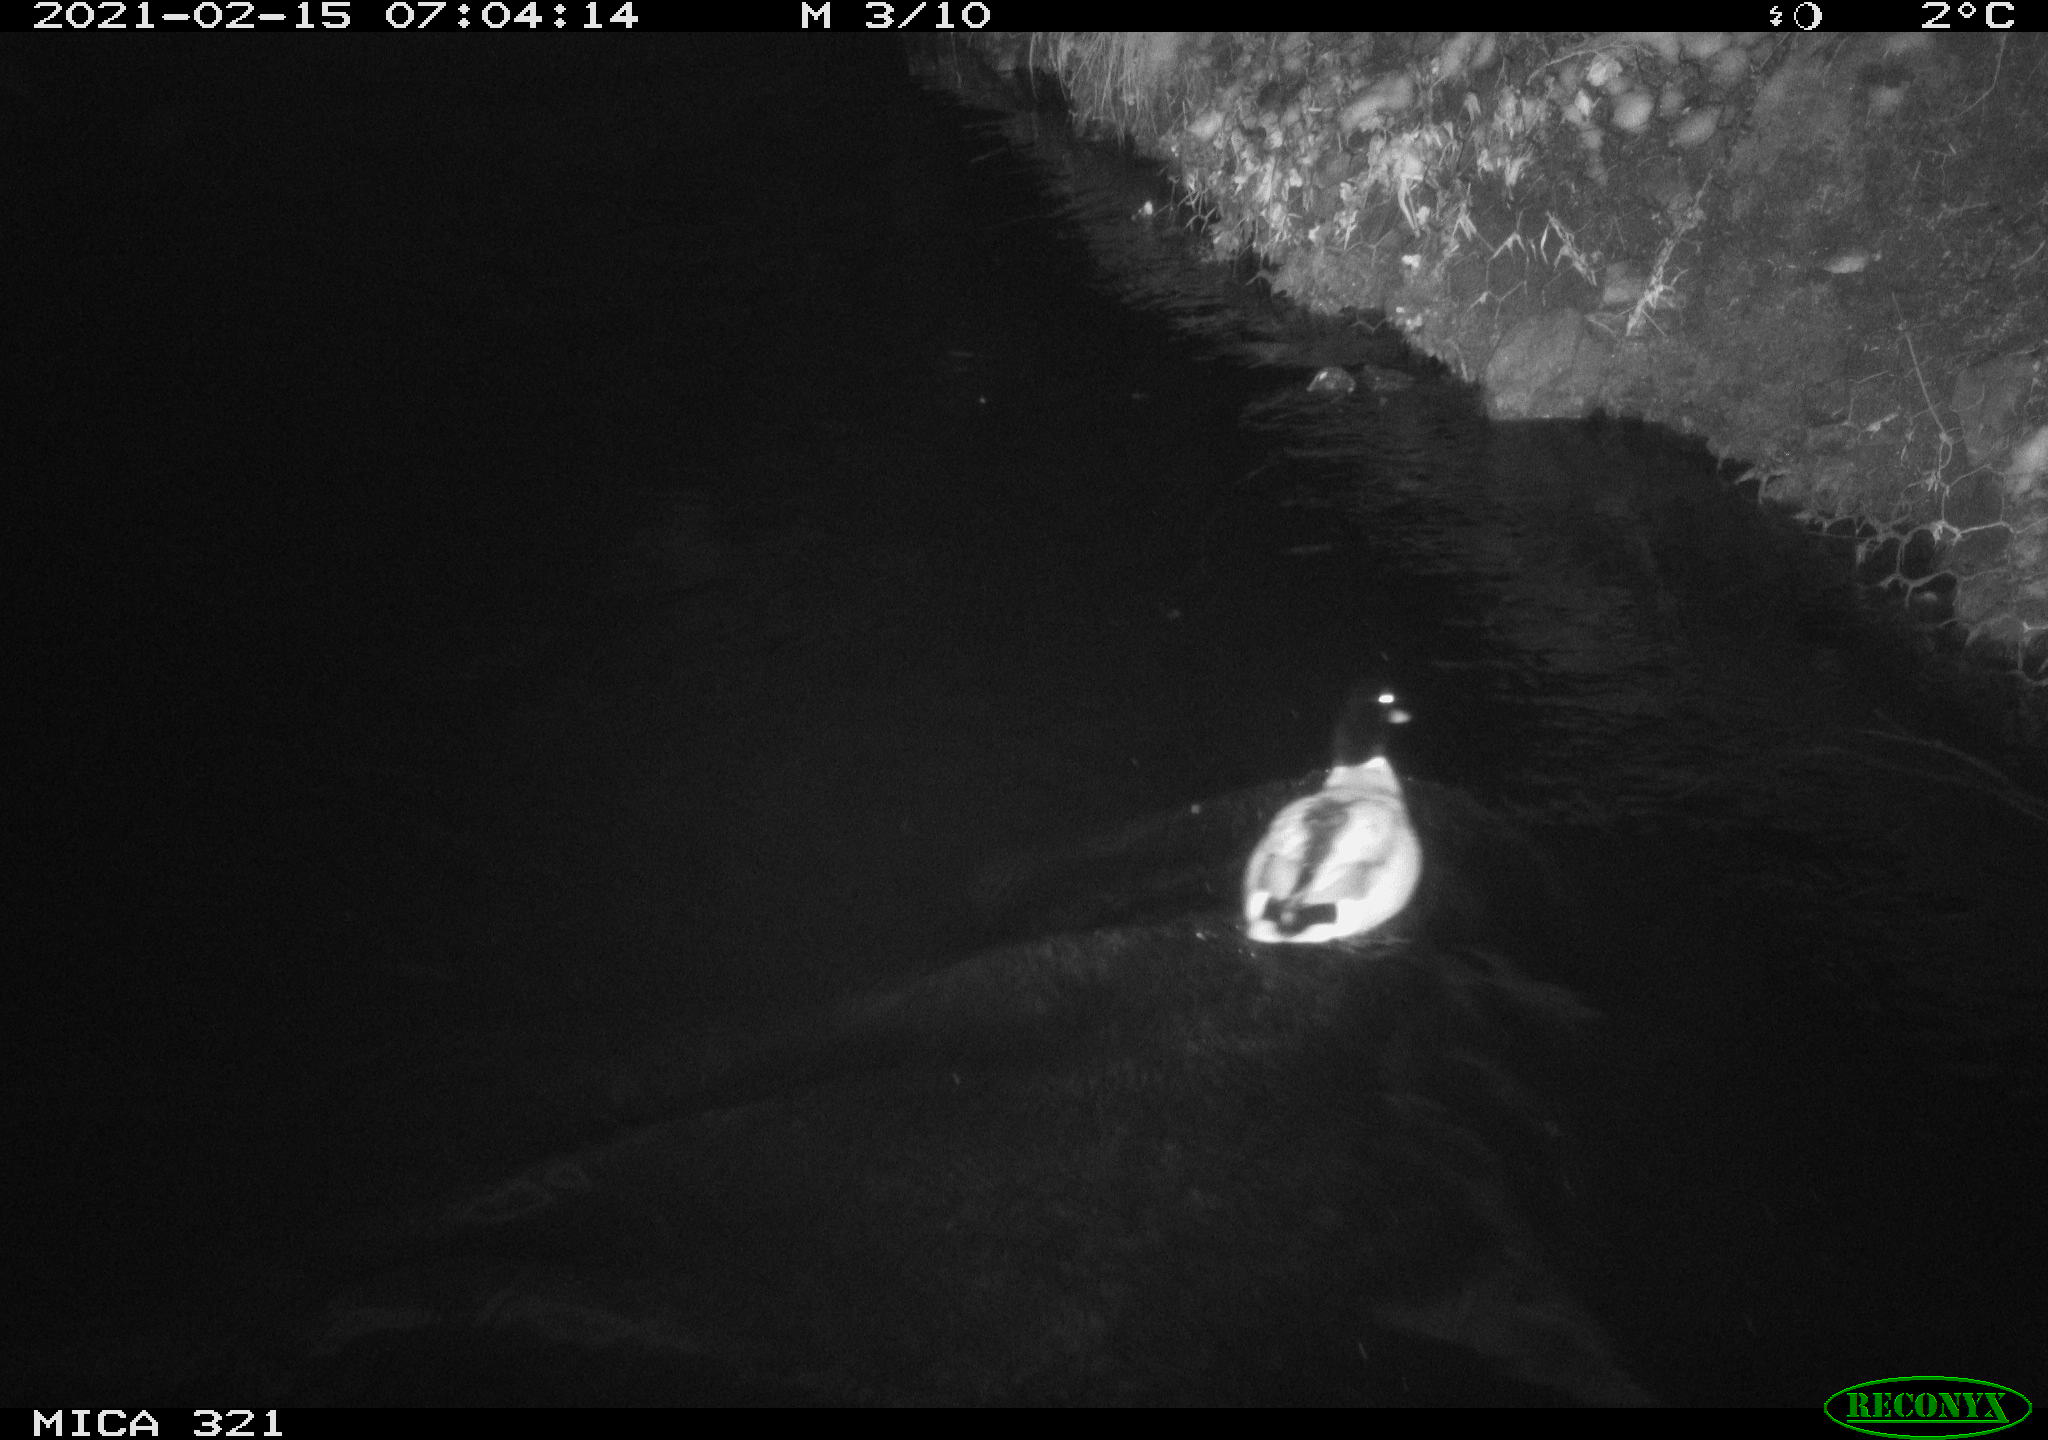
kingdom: Animalia
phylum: Chordata
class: Aves
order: Anseriformes
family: Anatidae
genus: Anas
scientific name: Anas platyrhynchos
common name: Mallard
